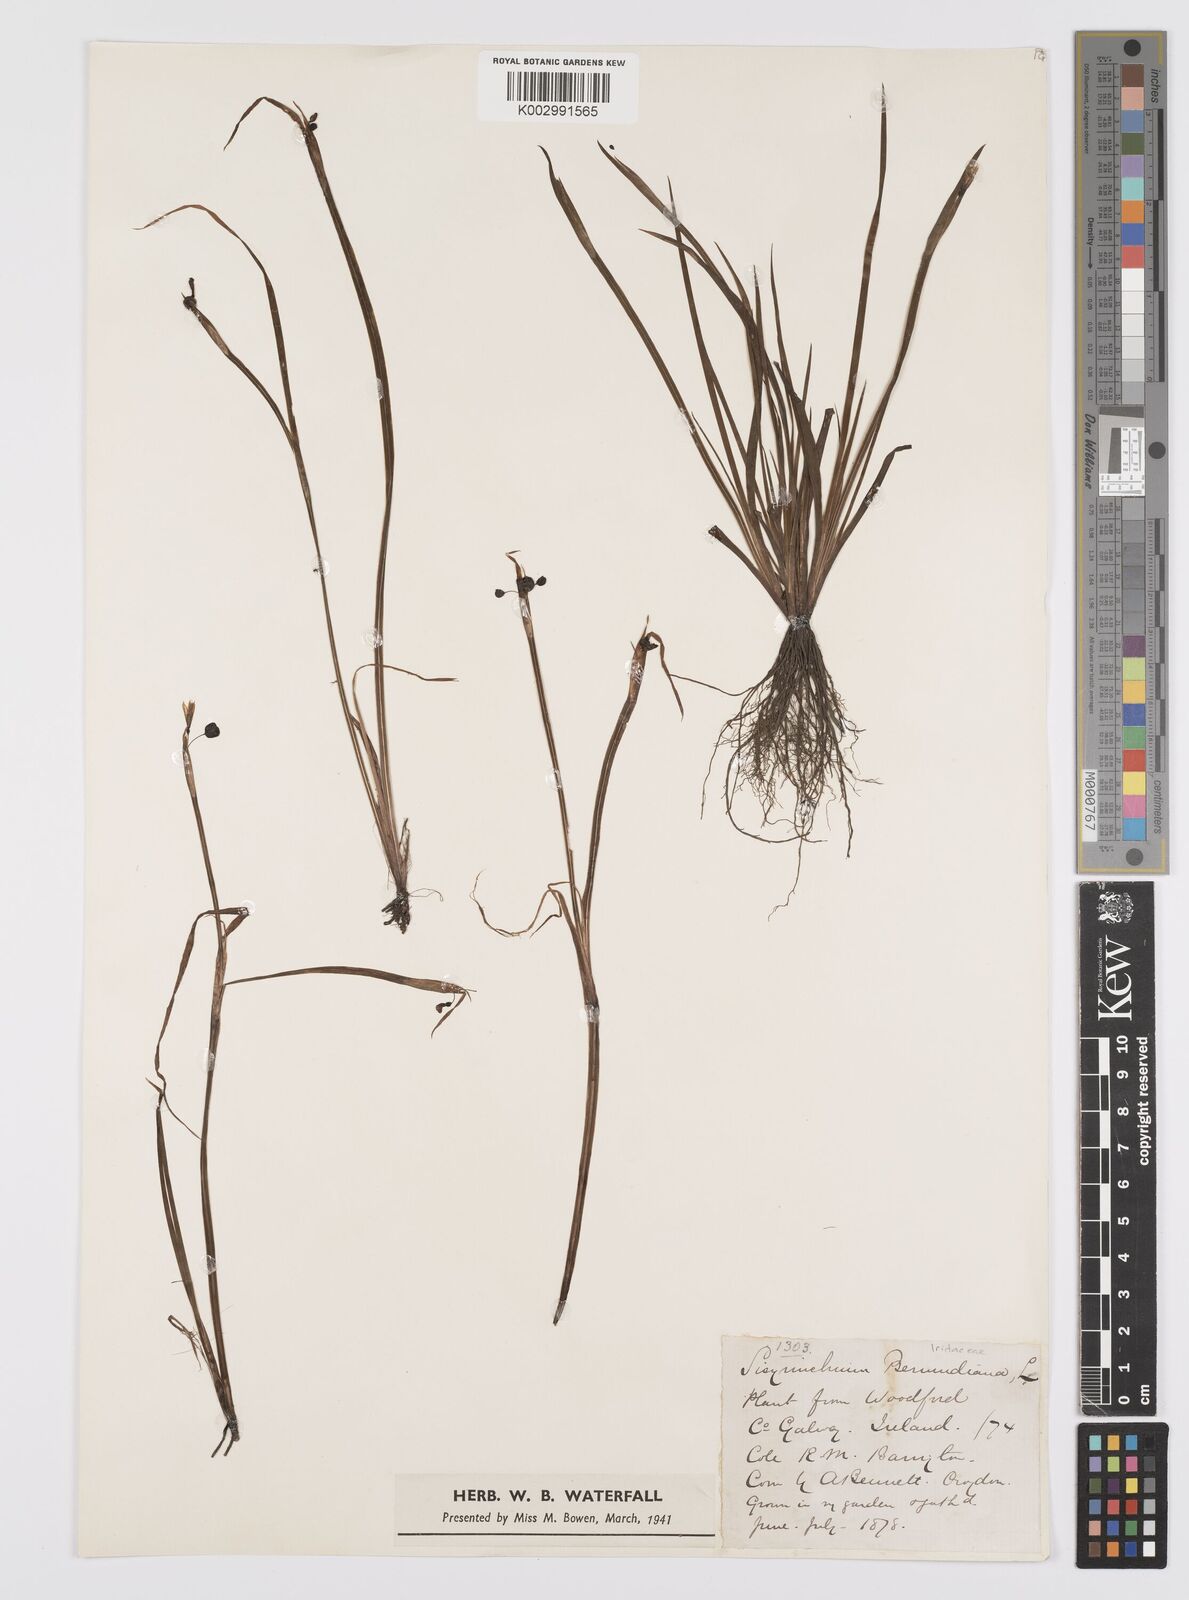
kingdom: Plantae
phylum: Tracheophyta
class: Liliopsida
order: Asparagales
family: Iridaceae
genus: Sisyrinchium
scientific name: Sisyrinchium angustifolium
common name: Narrow-leaf blue-eyed-grass
